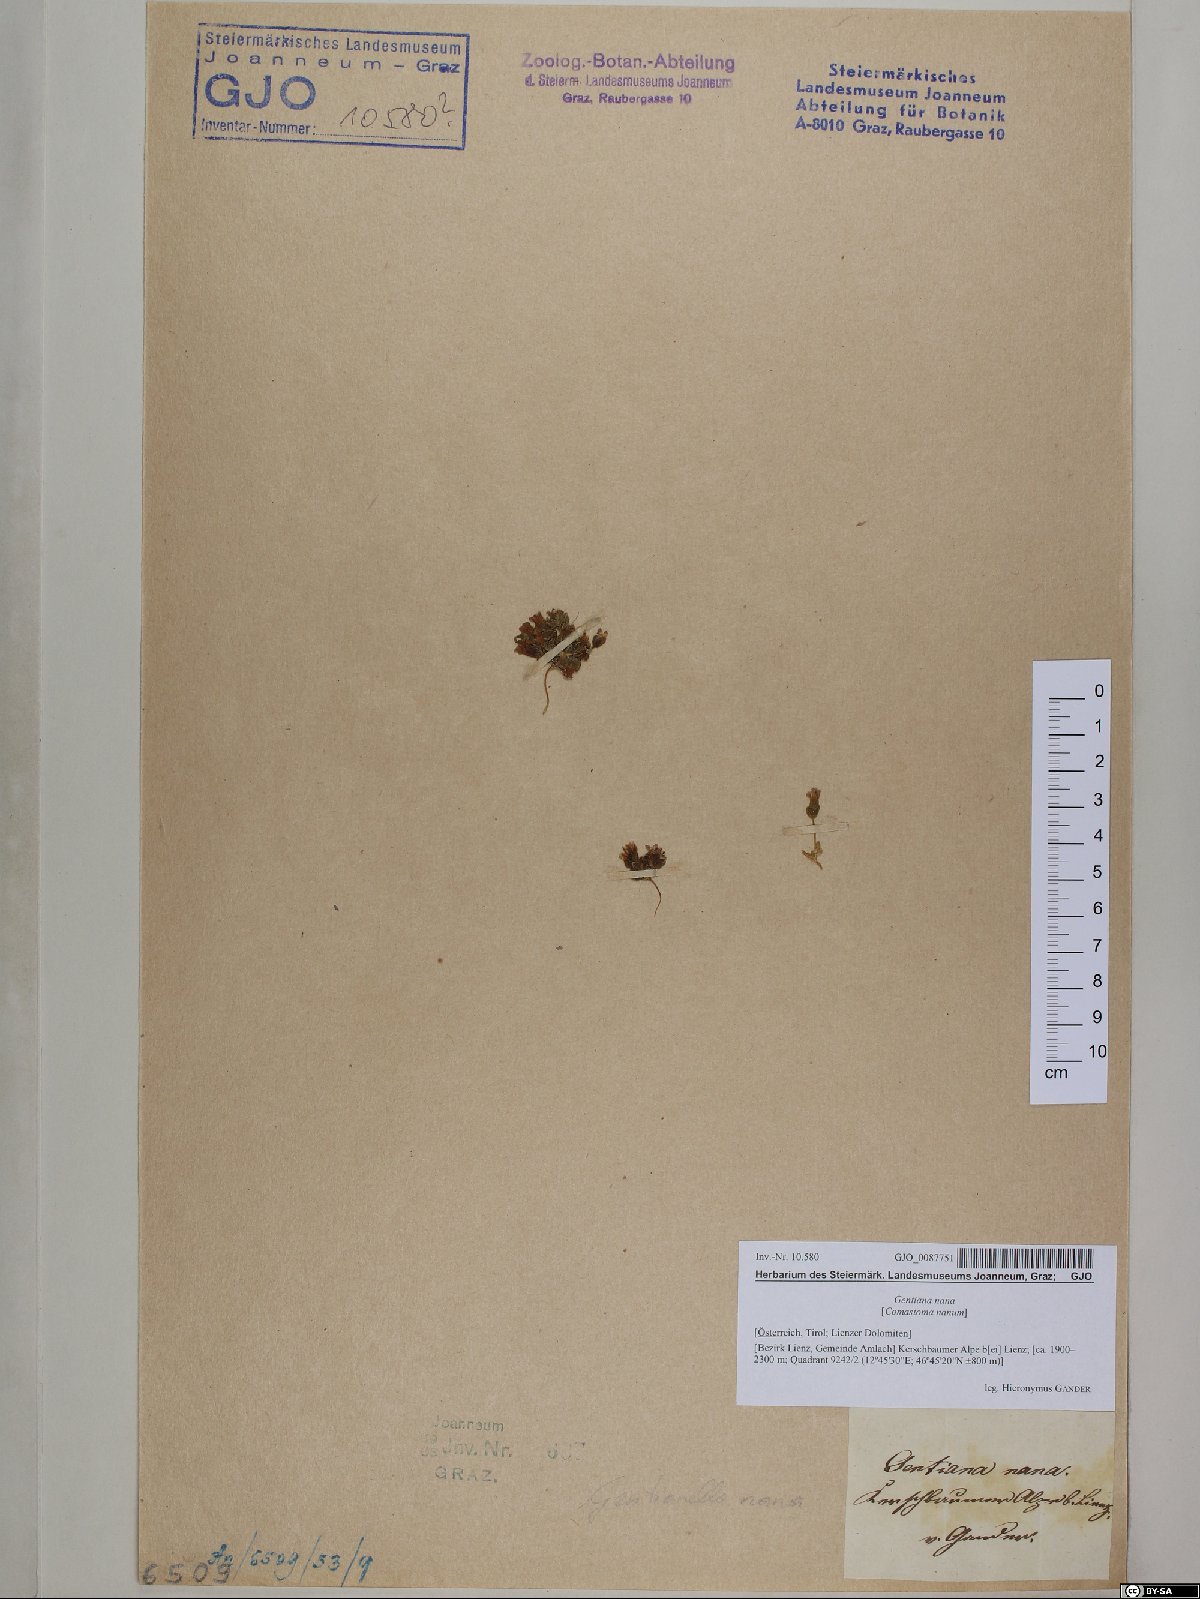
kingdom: Plantae
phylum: Tracheophyta
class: Magnoliopsida
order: Gentianales
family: Gentianaceae
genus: Comastoma
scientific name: Comastoma nanum
